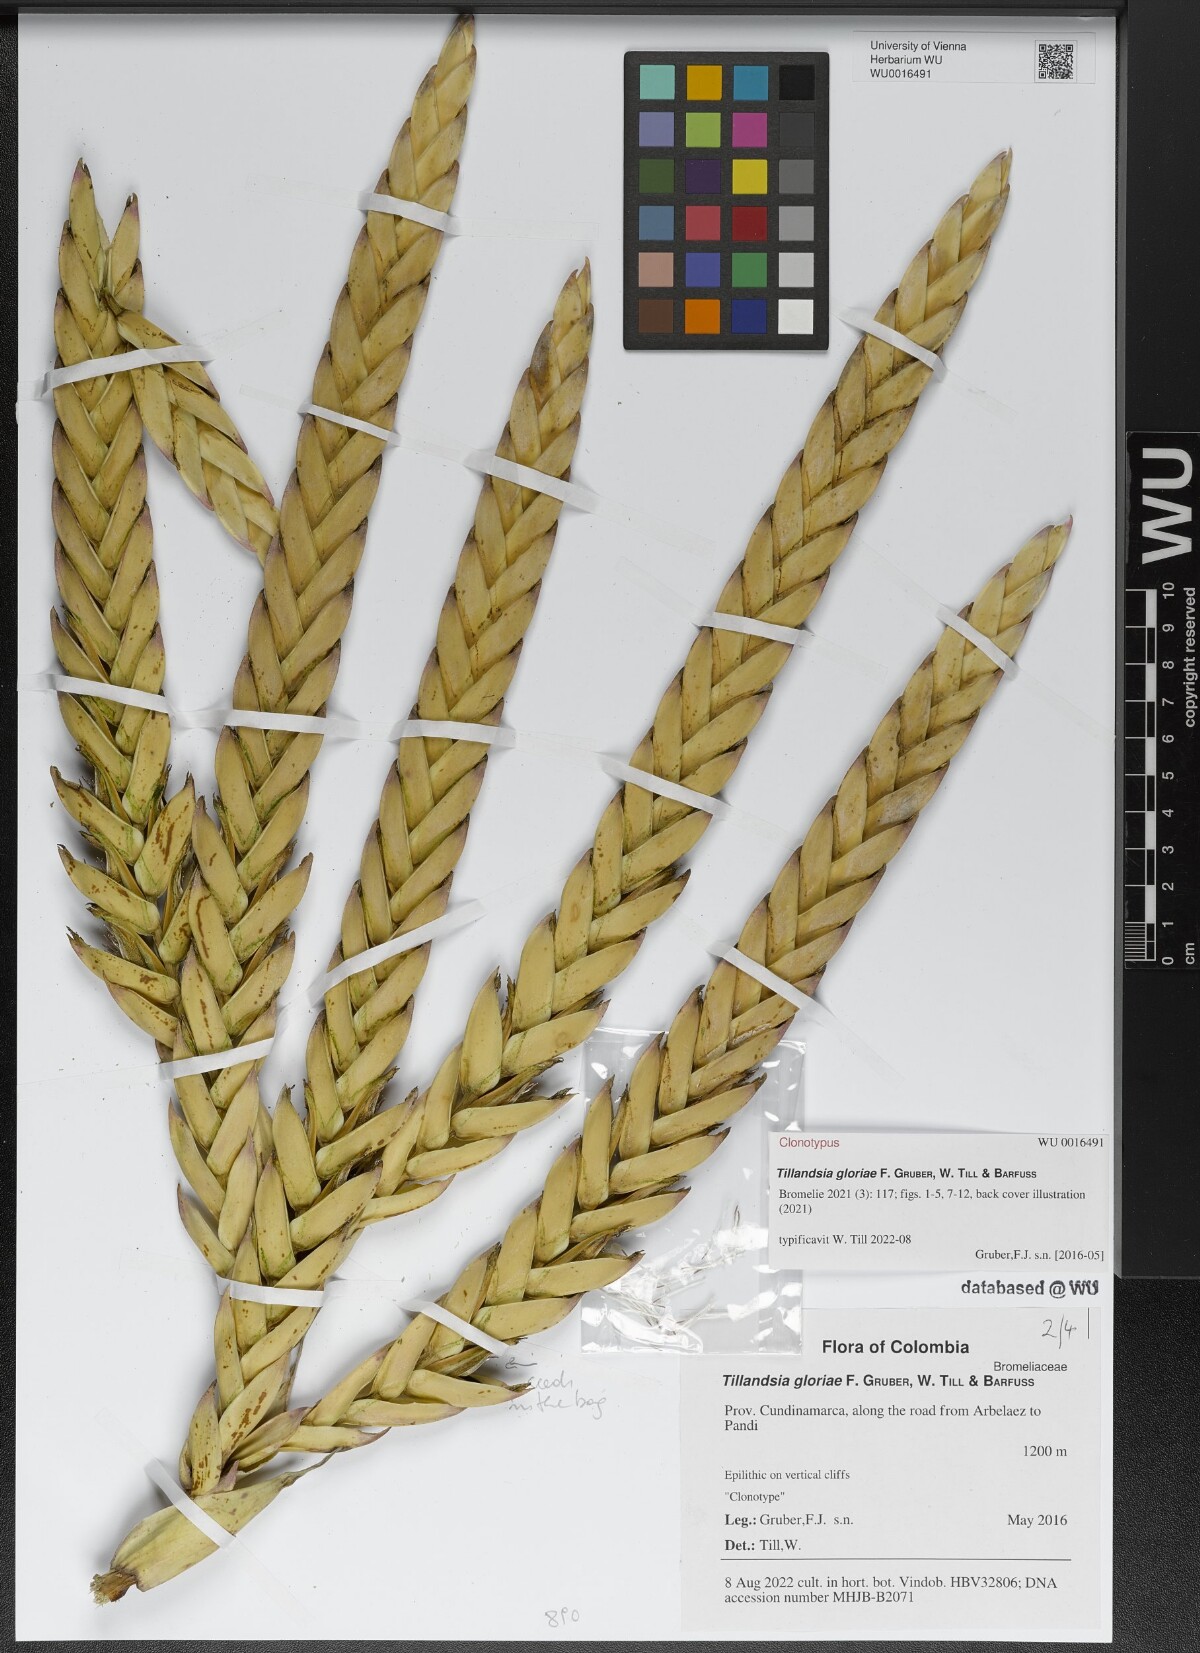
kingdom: Plantae
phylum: Tracheophyta
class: Liliopsida
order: Poales
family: Bromeliaceae
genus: Tillandsia
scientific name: Tillandsia
